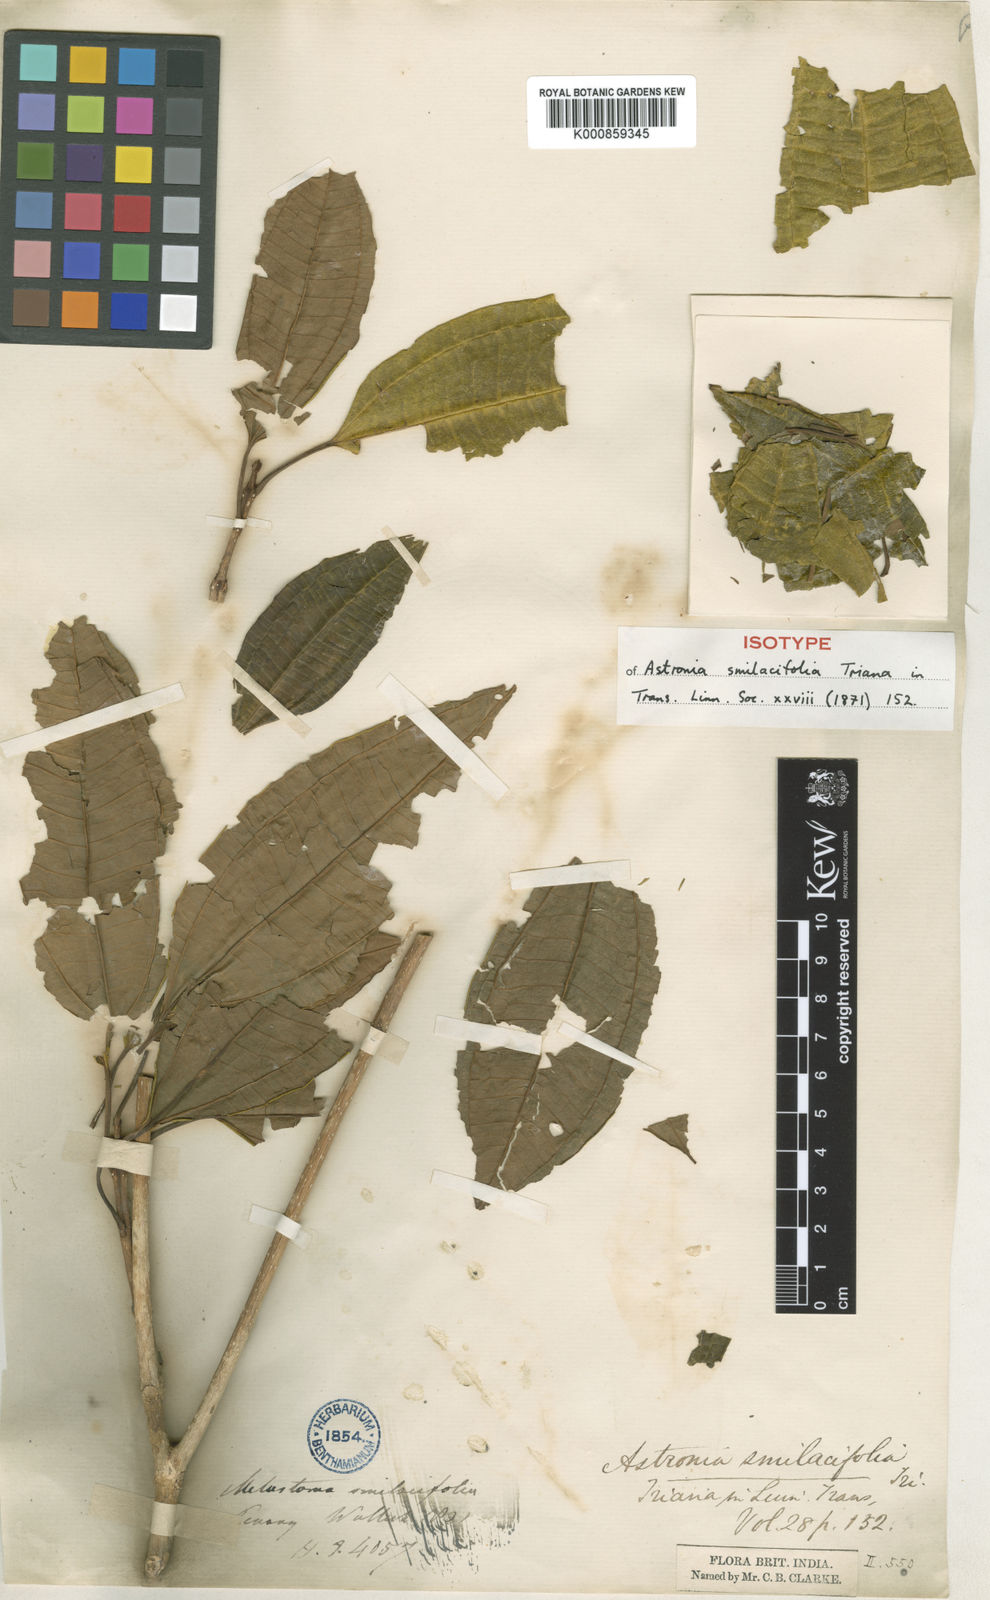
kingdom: Plantae
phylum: Tracheophyta
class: Magnoliopsida
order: Myrtales
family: Melastomataceae
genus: Astronia
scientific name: Astronia smilacifolia
